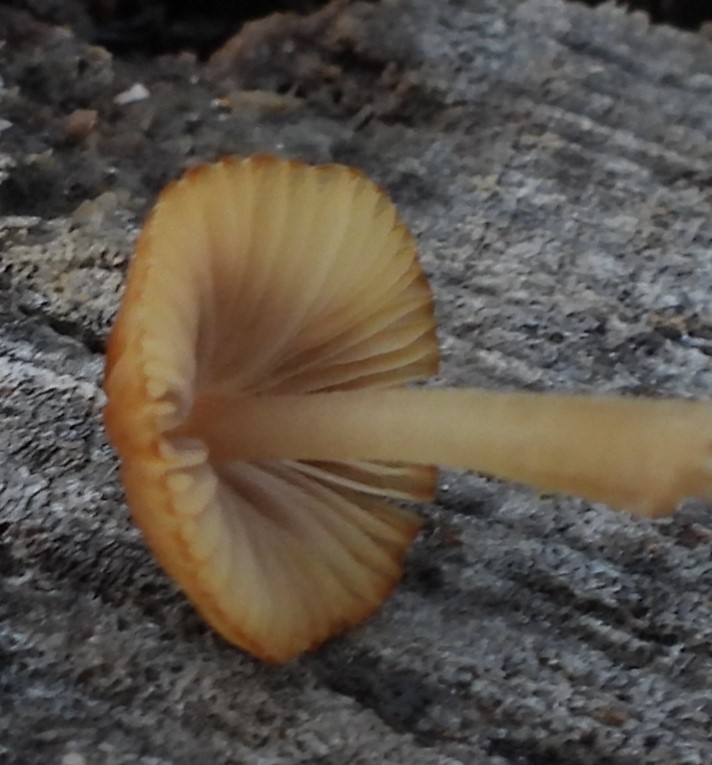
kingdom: Fungi
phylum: Basidiomycota
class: Agaricomycetes
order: Agaricales
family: Psathyrellaceae
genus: Coprinellus
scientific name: Coprinellus disseminatus
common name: bredsået blækhat
